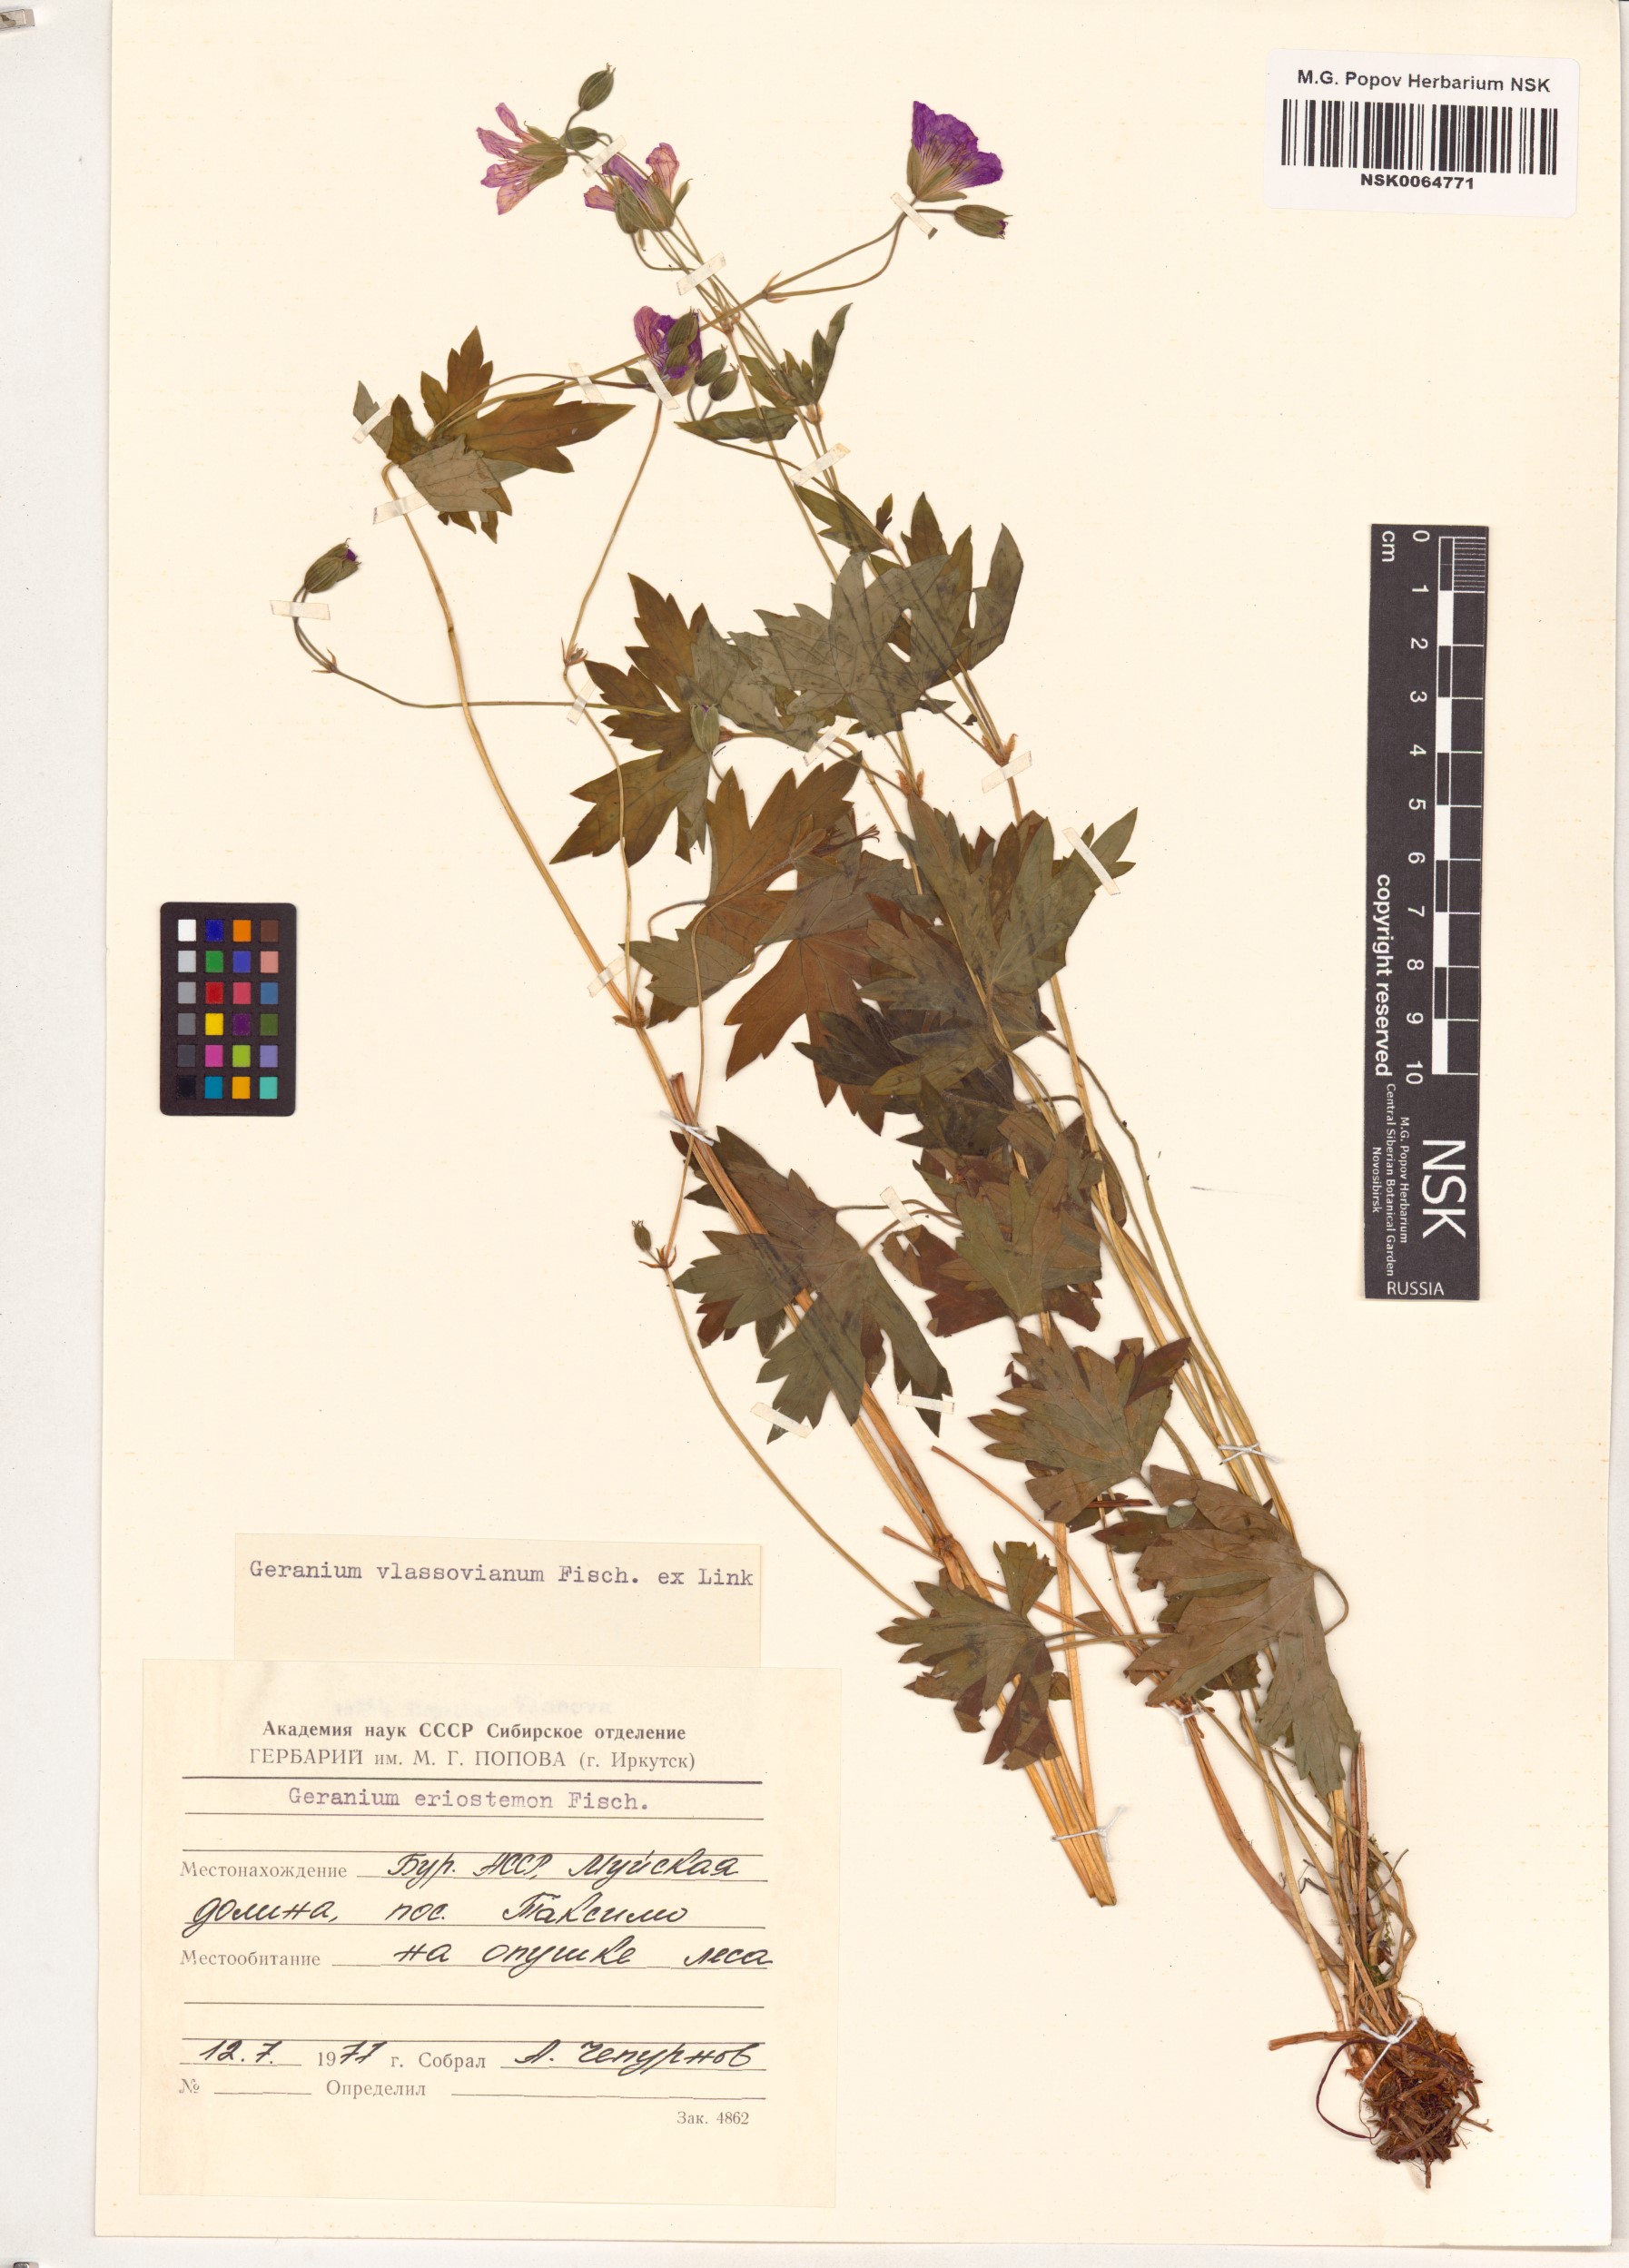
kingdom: Plantae
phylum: Tracheophyta
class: Magnoliopsida
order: Geraniales
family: Geraniaceae
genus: Geranium
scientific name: Geranium wlassovianum
